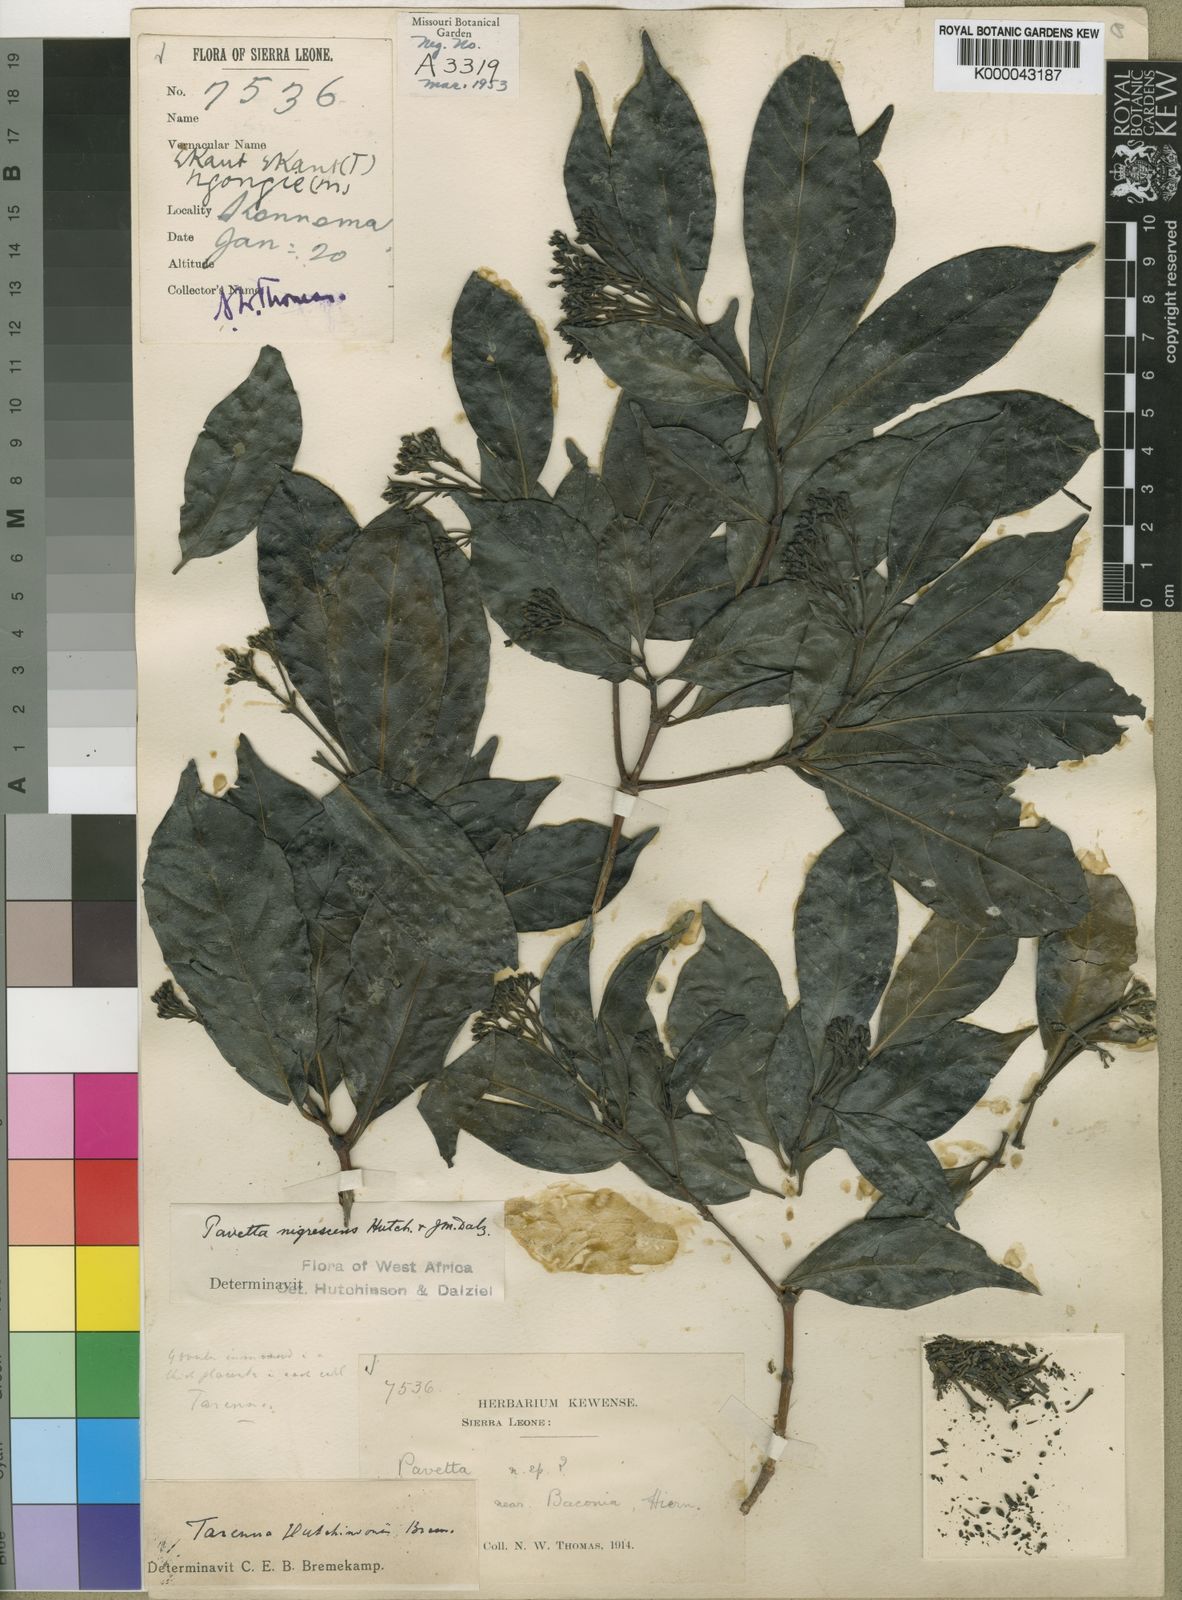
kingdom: Plantae
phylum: Tracheophyta
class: Magnoliopsida
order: Gentianales
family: Rubiaceae
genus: Tarenna
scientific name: Tarenna hutchinsonii
